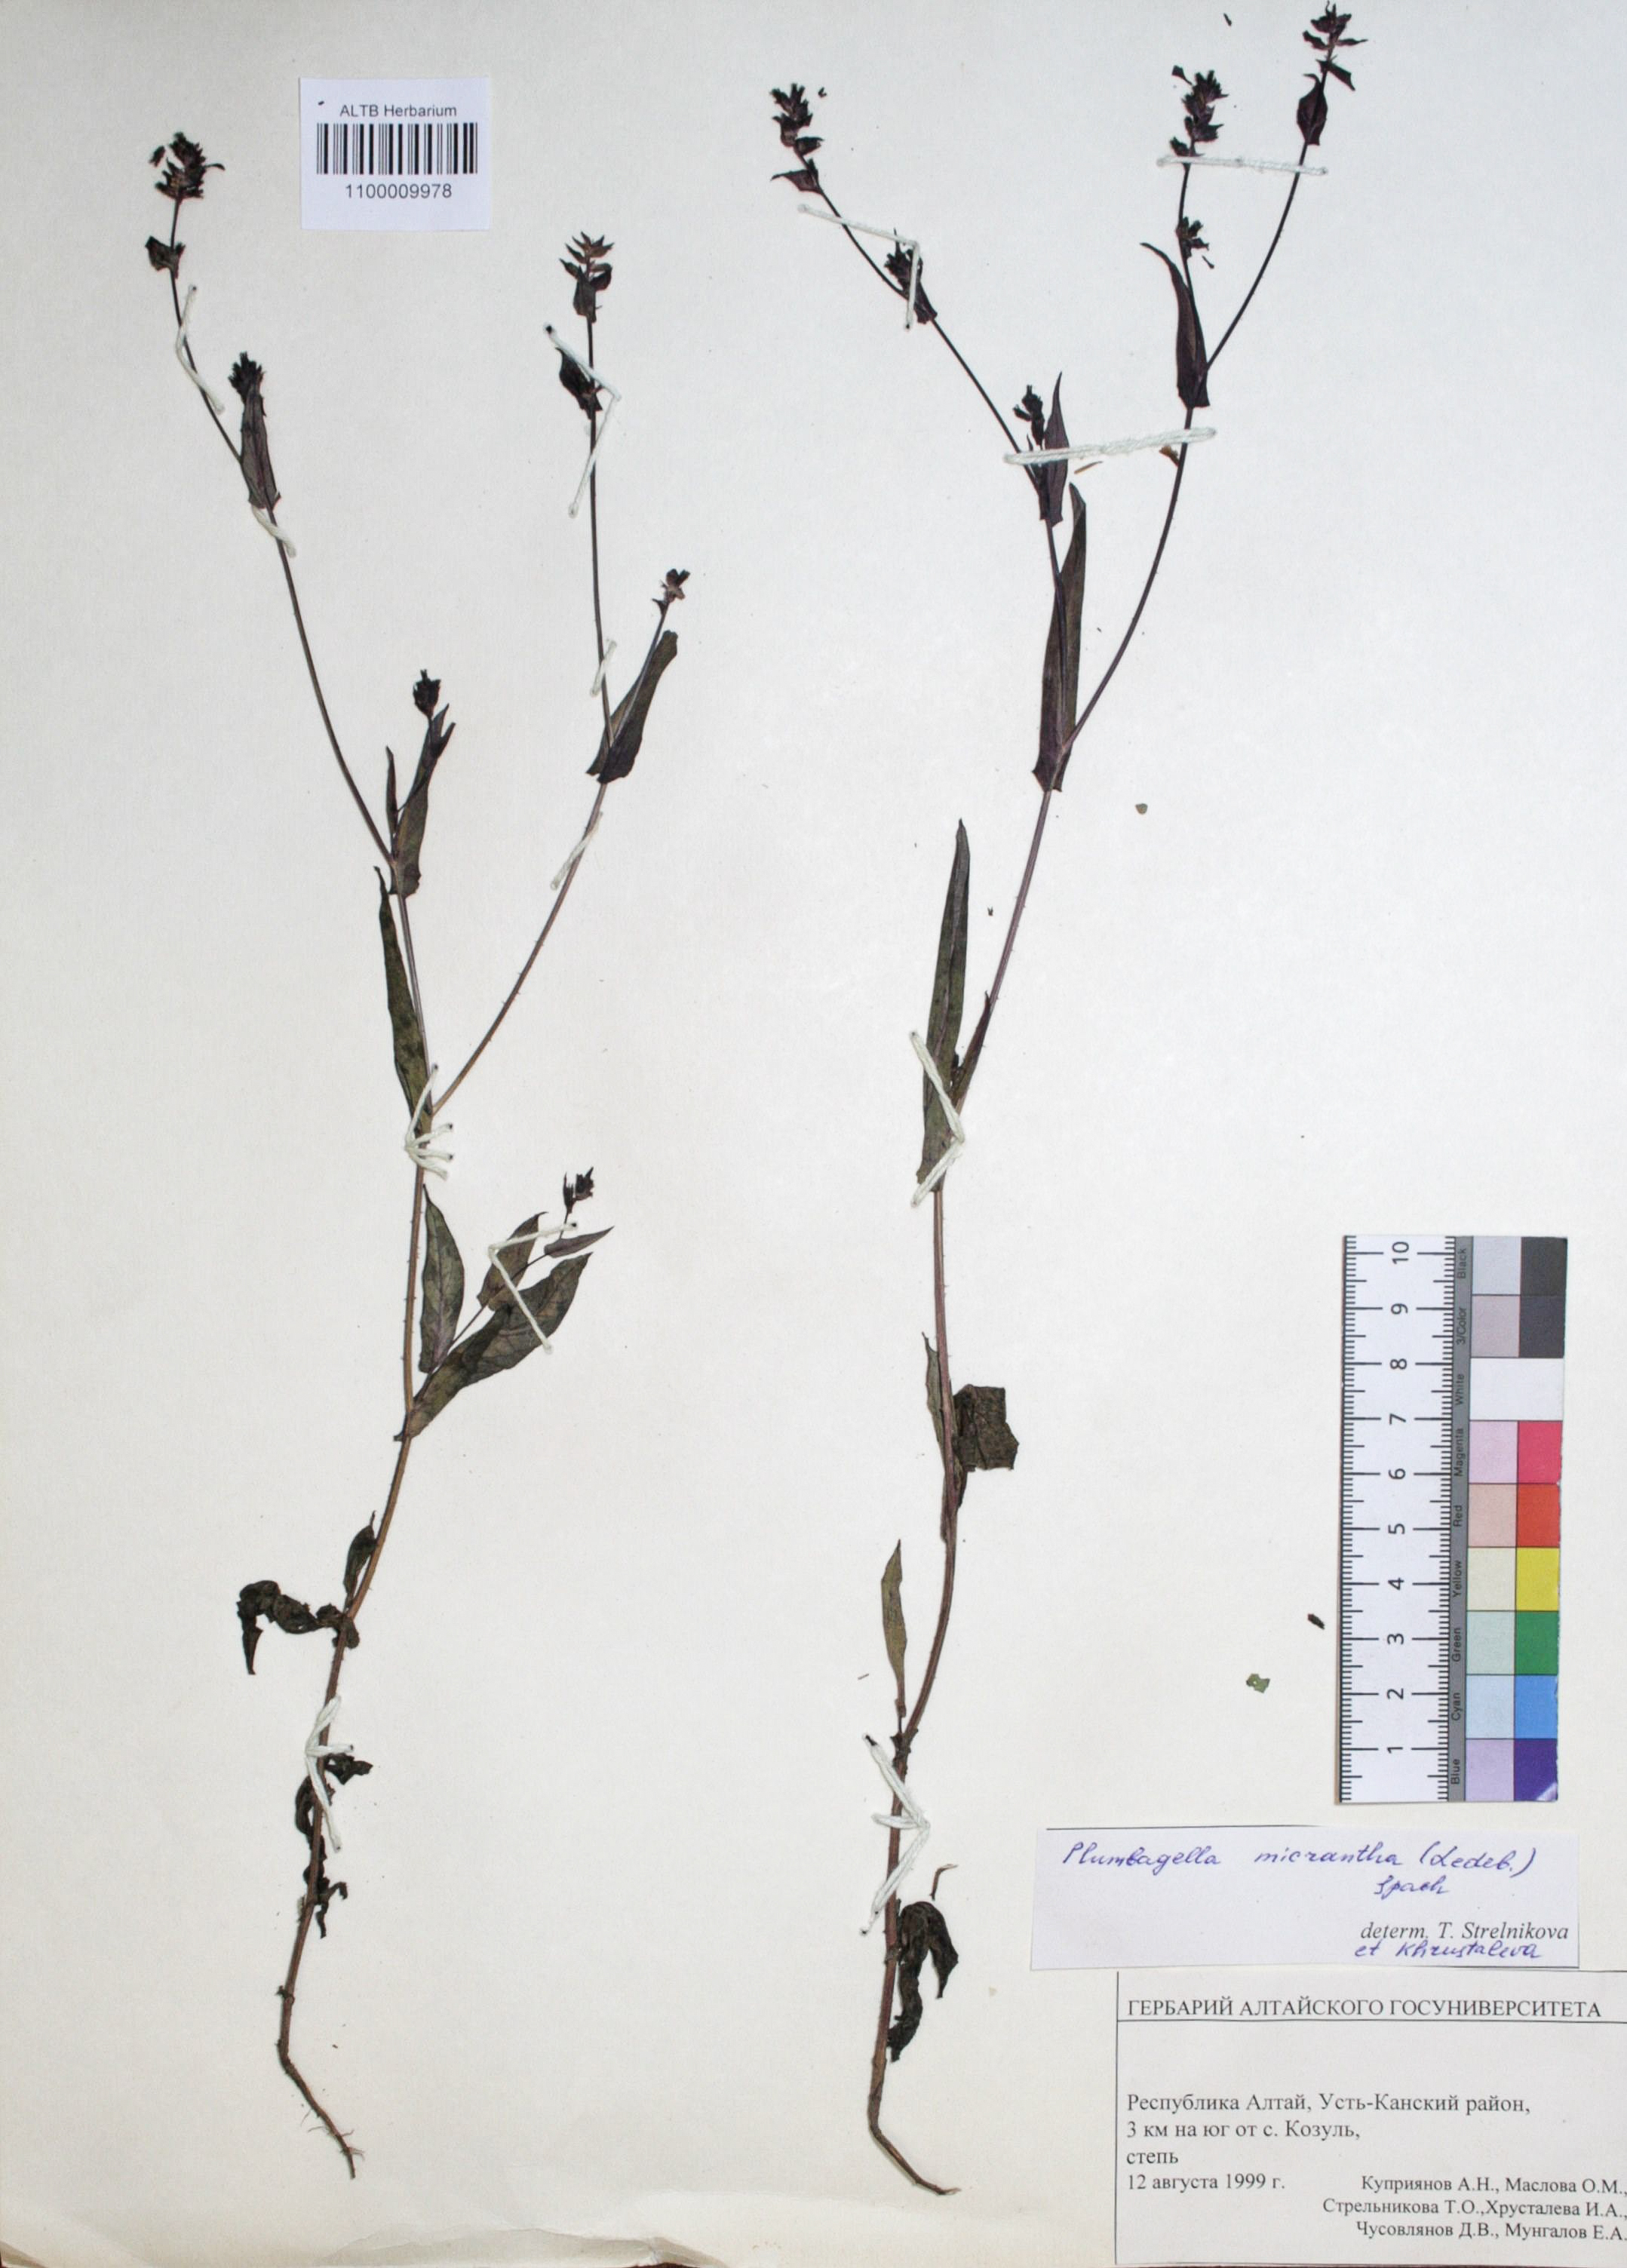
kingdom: Plantae
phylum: Tracheophyta
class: Magnoliopsida
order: Caryophyllales
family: Plumbaginaceae
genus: Plumbagella
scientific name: Plumbagella micrantha
